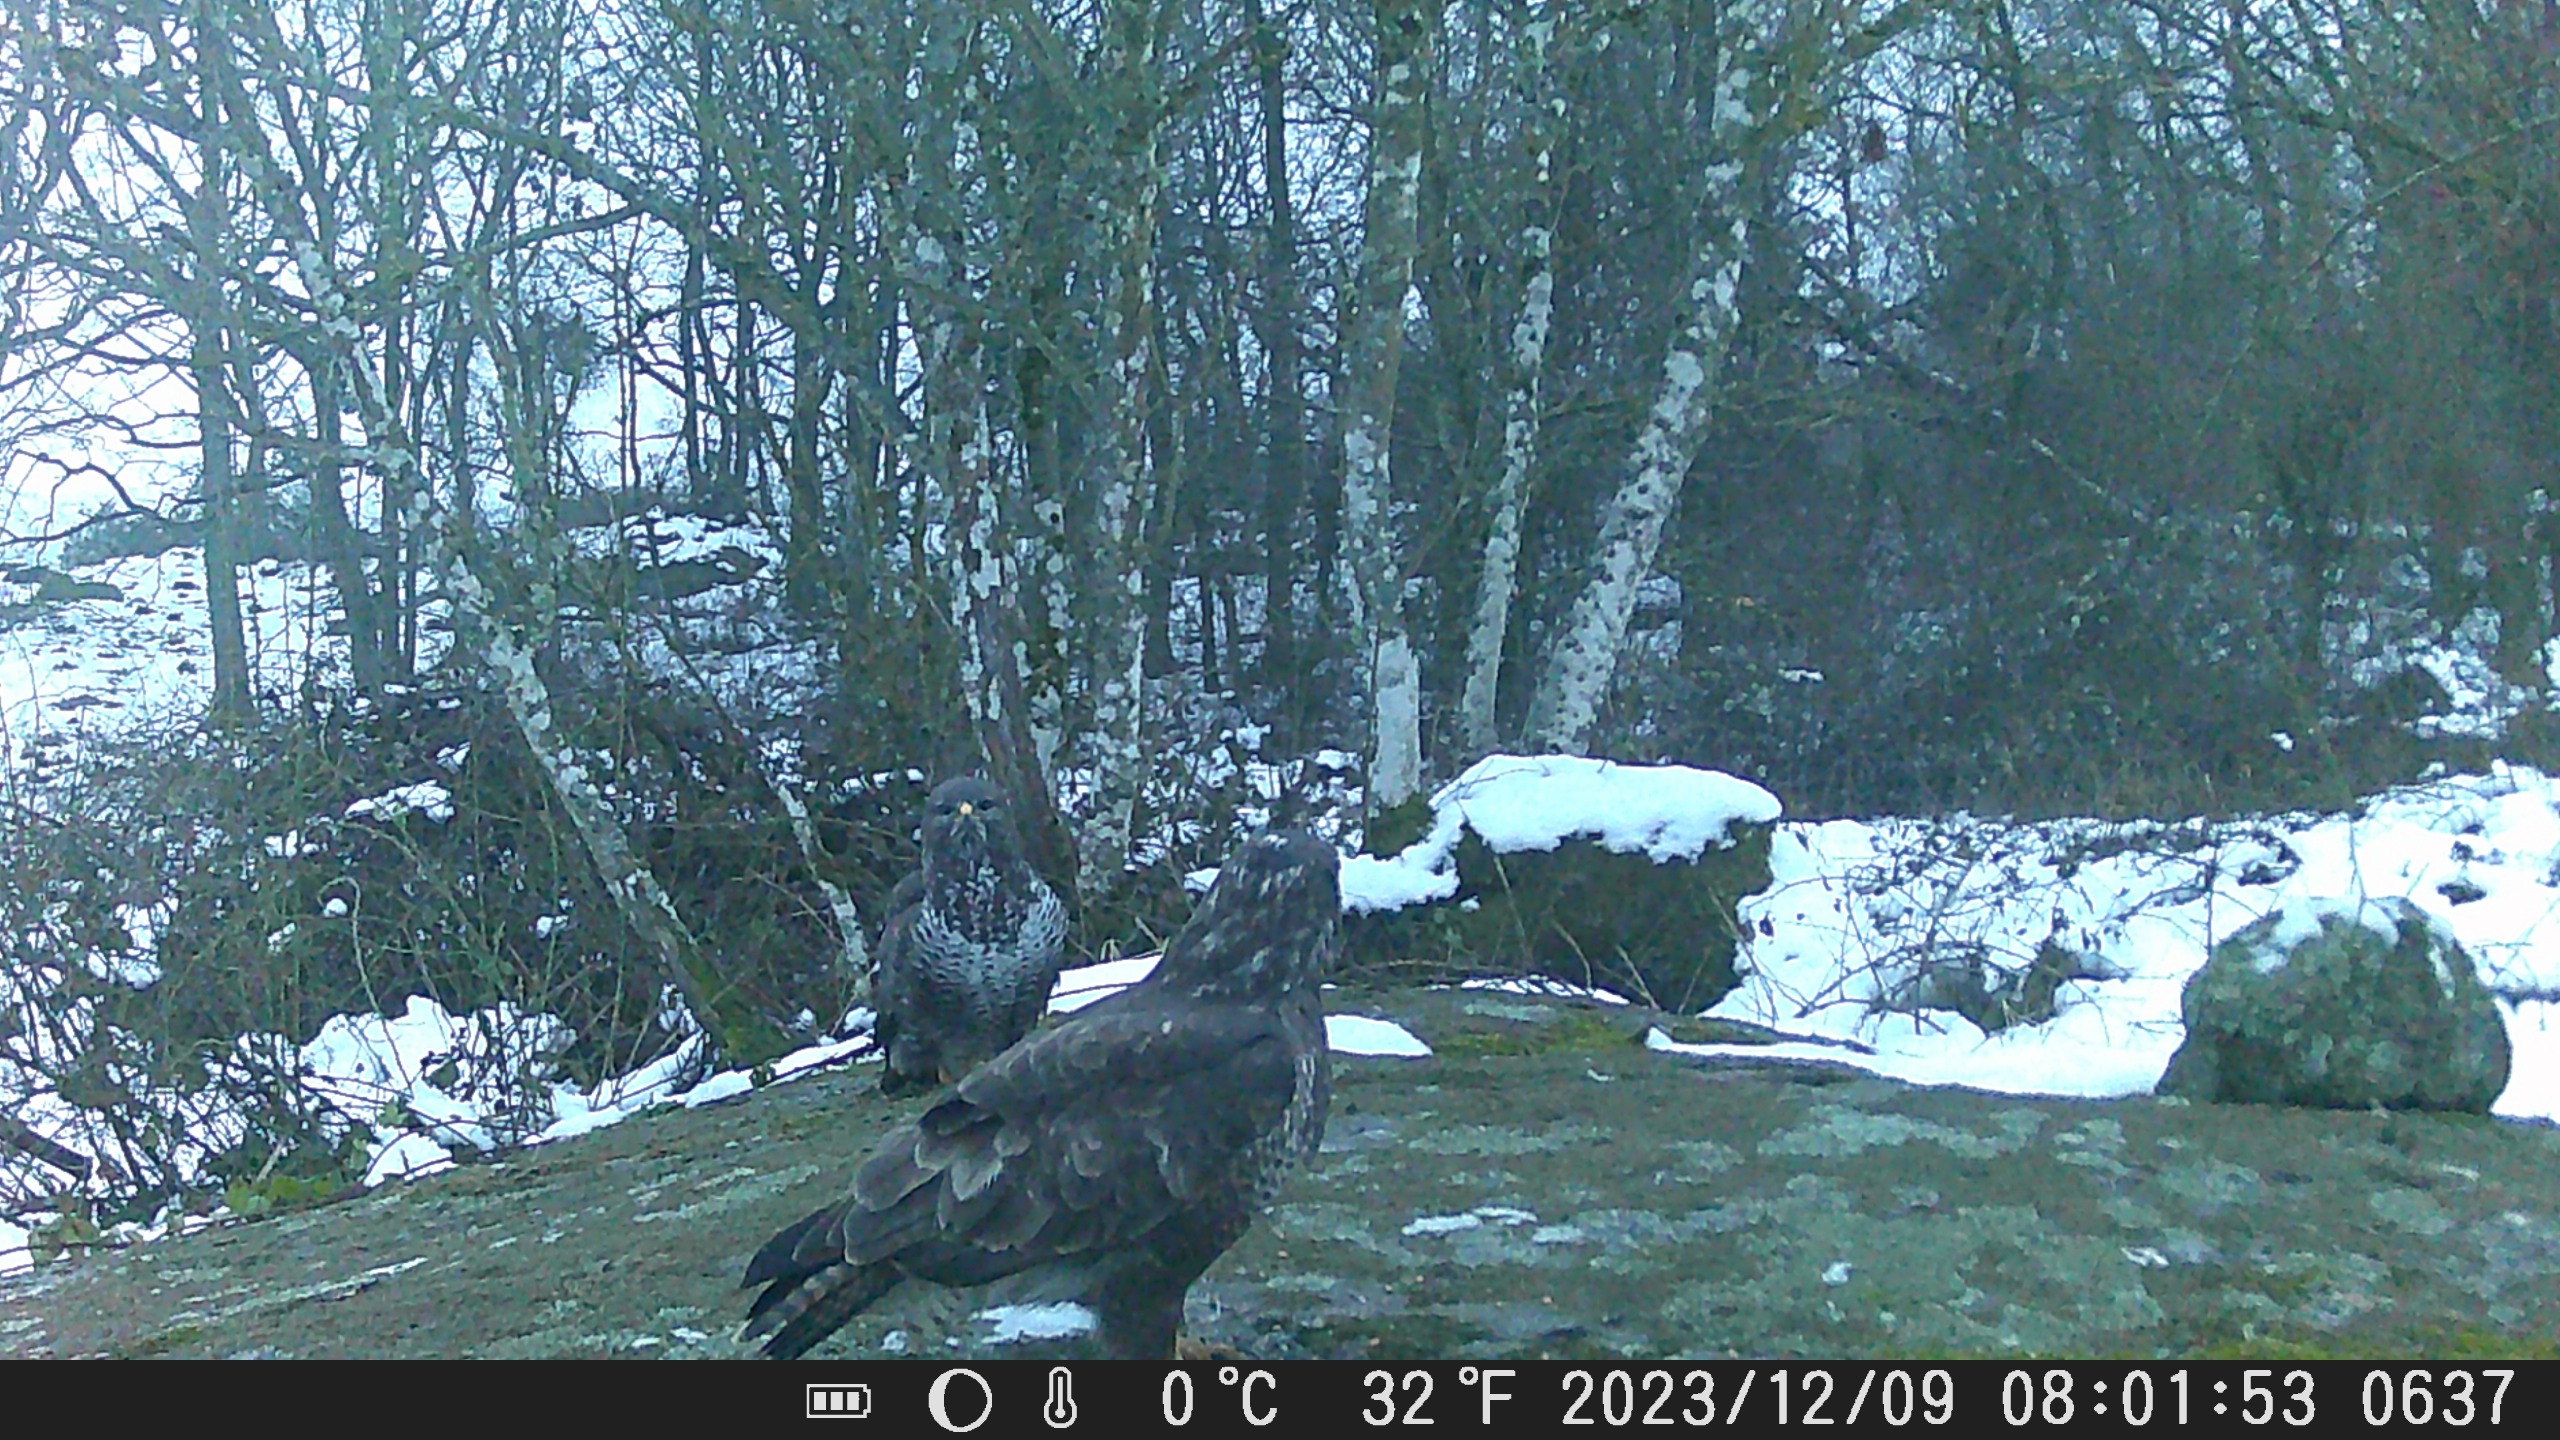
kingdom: Animalia
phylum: Chordata
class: Aves
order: Accipitriformes
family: Accipitridae
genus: Buteo
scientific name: Buteo buteo
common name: Musvåge
